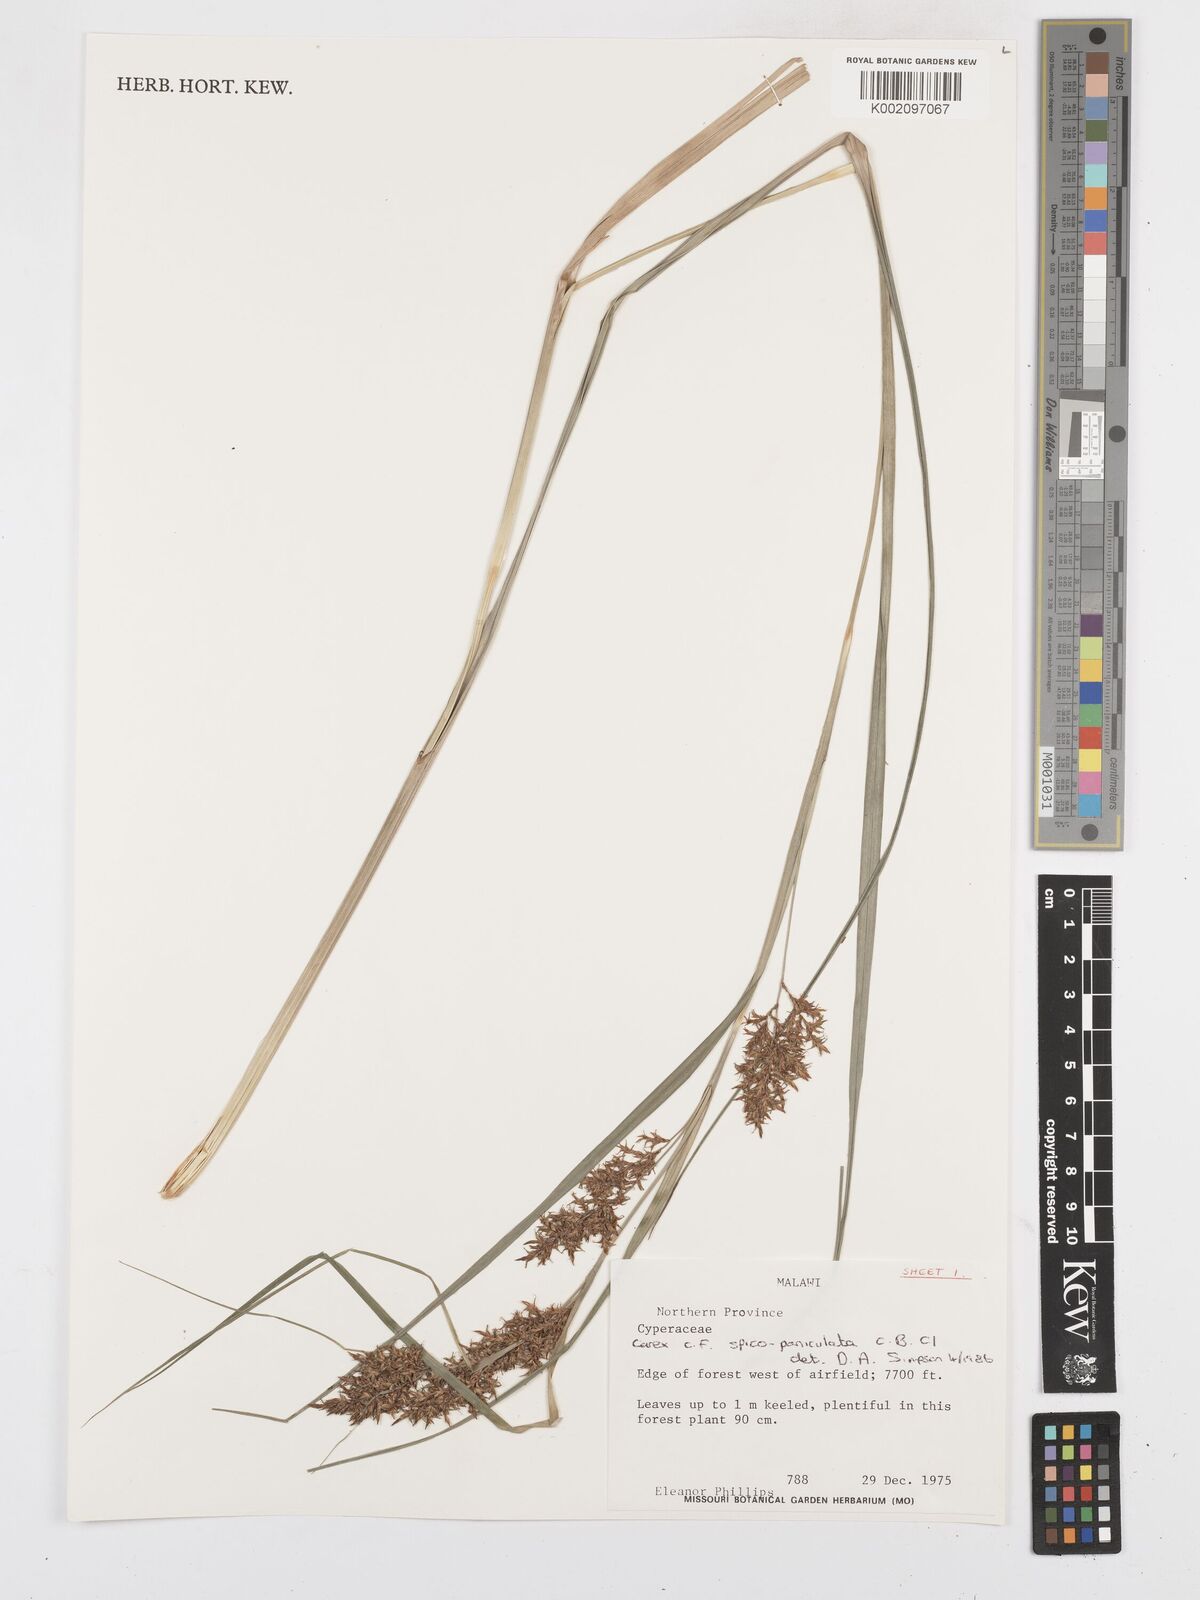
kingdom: Plantae
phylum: Tracheophyta
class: Liliopsida
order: Poales
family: Cyperaceae
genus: Carex
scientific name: Carex spicatopaniculata
